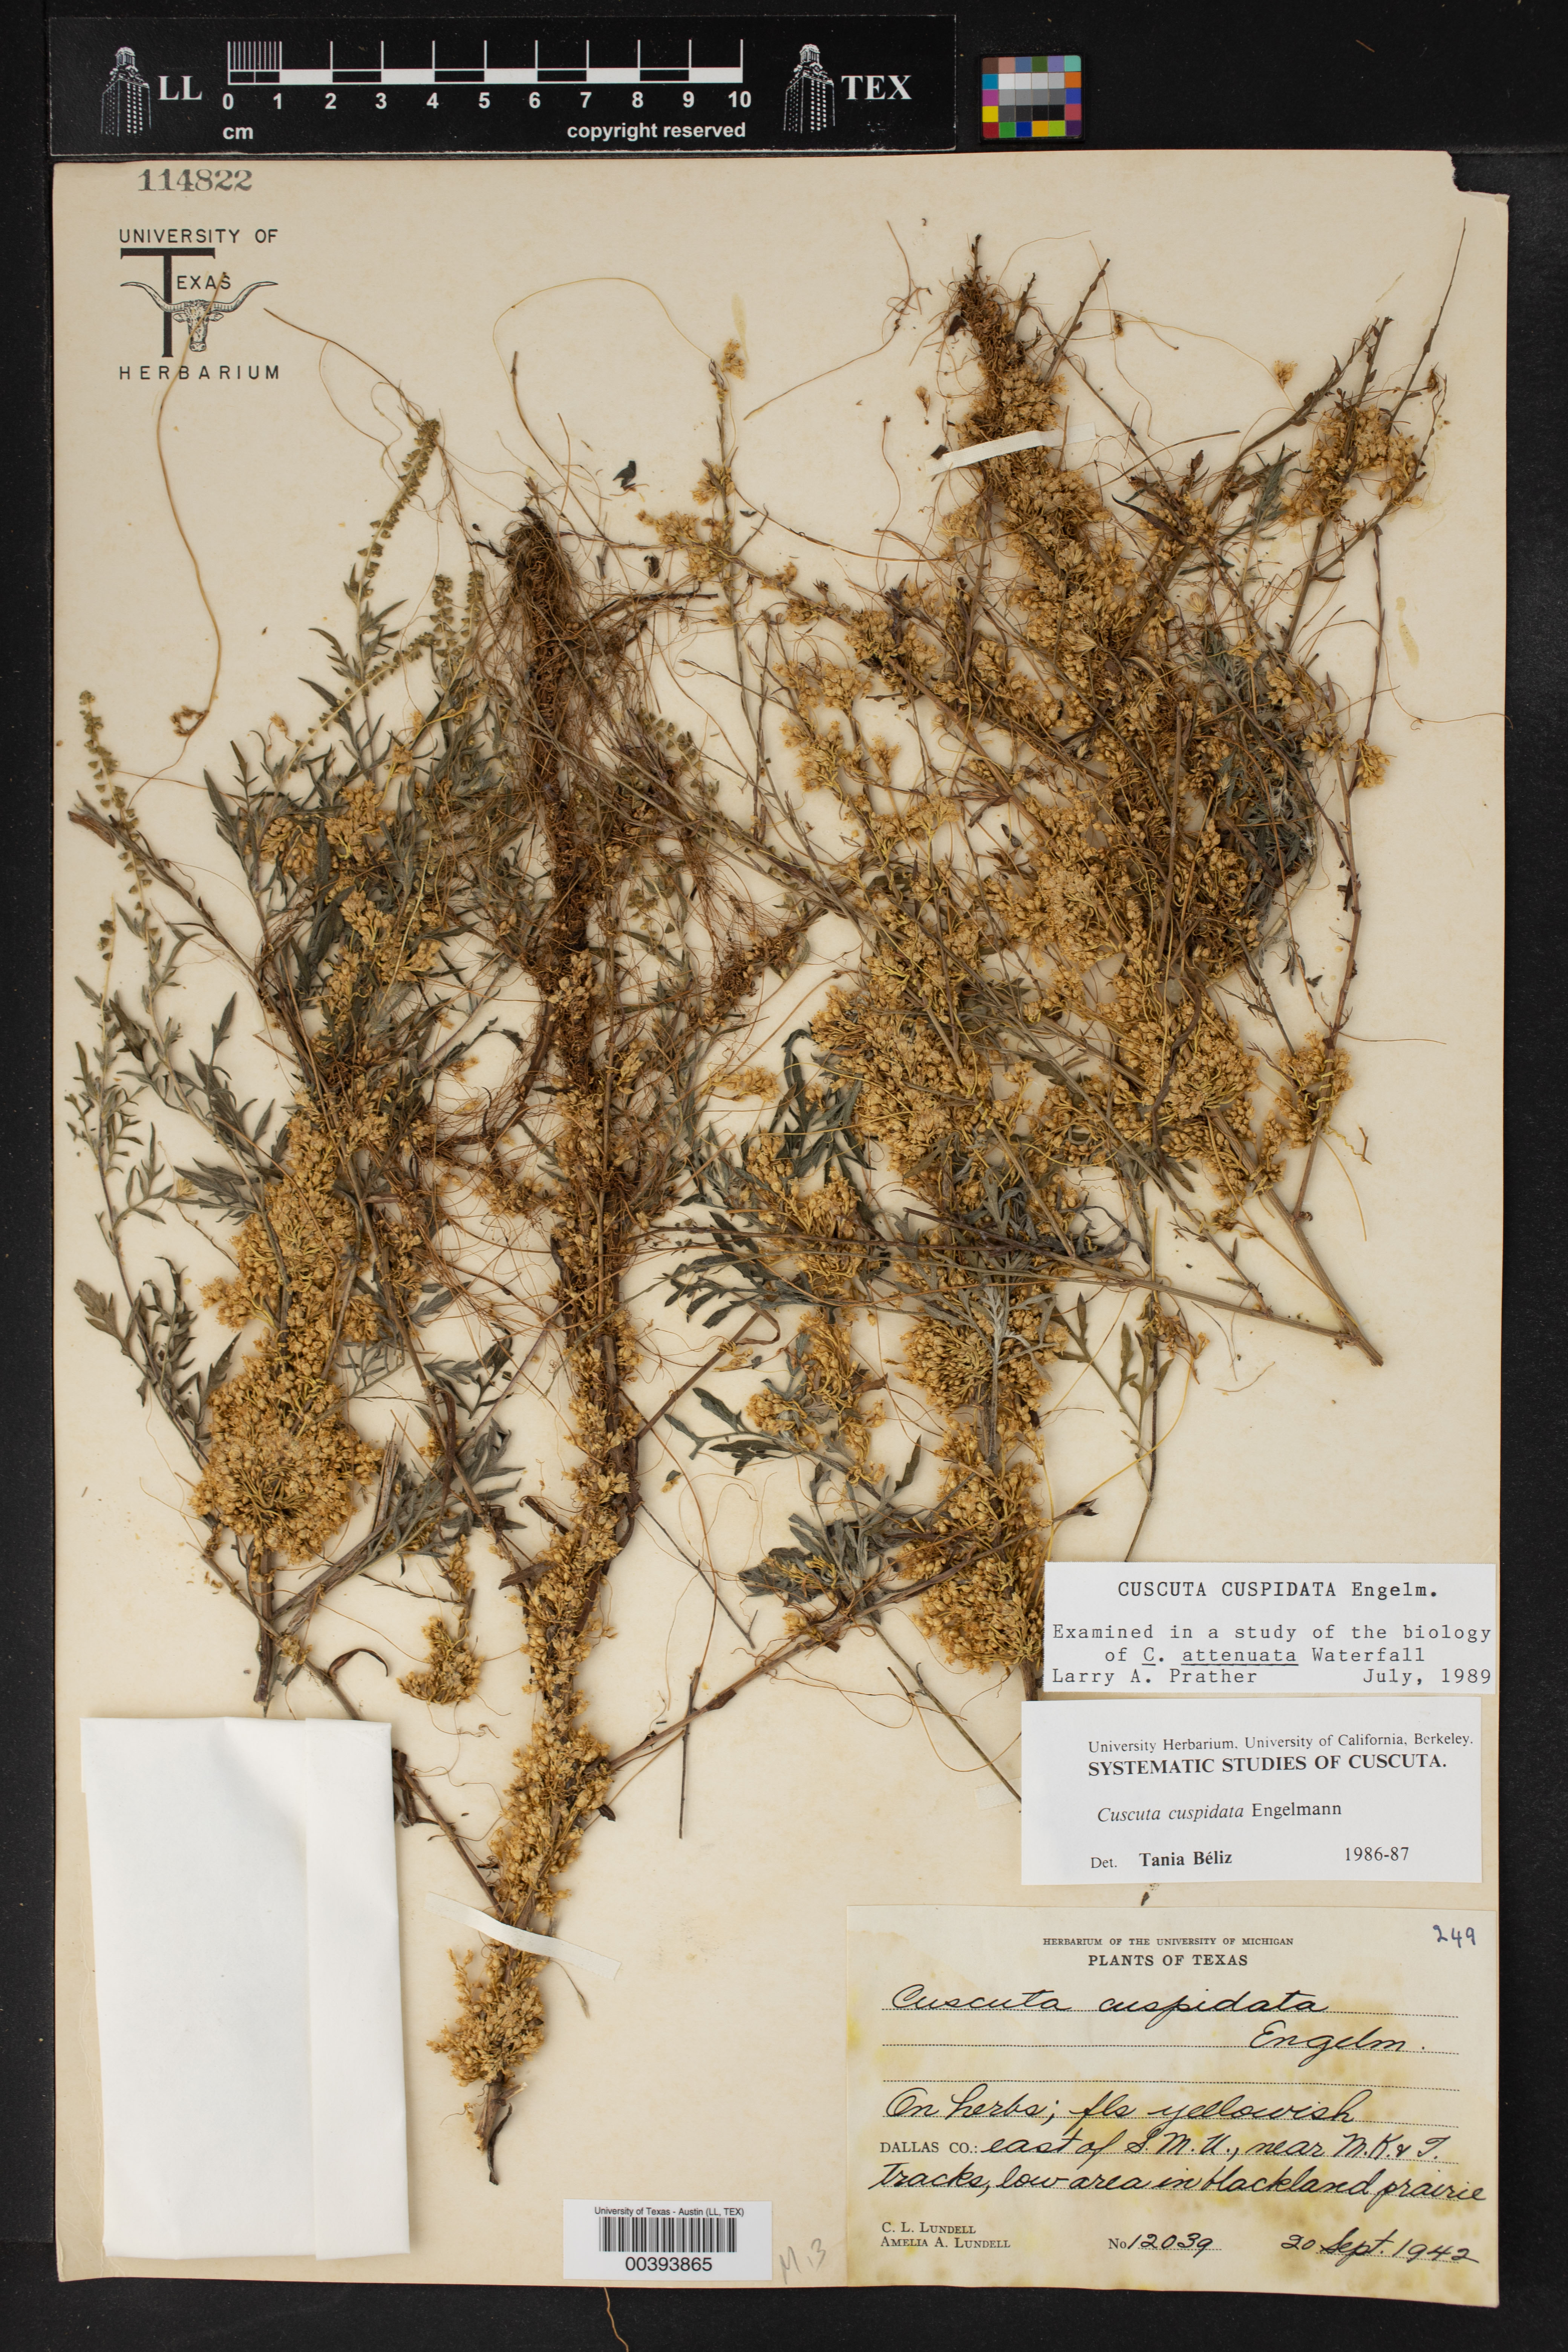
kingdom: Plantae
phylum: Tracheophyta
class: Magnoliopsida
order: Solanales
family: Convolvulaceae
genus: Cuscuta
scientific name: Cuscuta cuspidata
